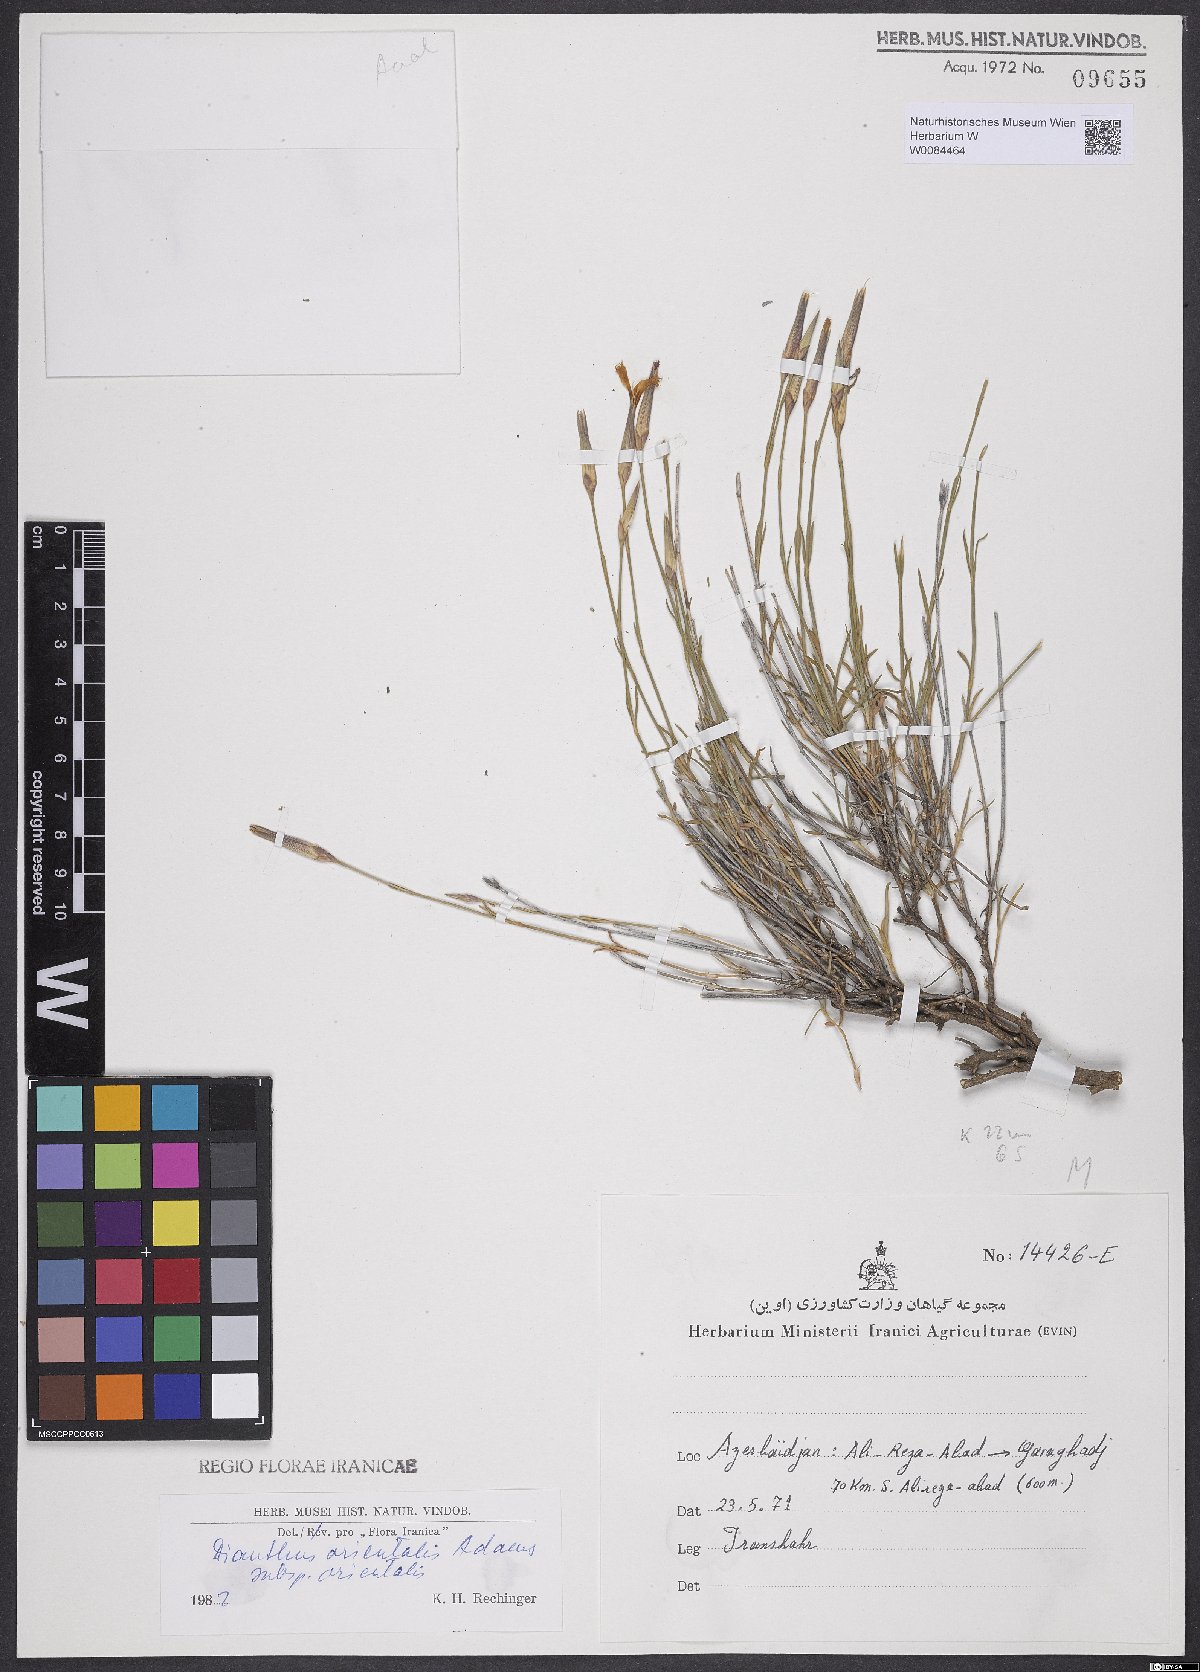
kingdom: Plantae
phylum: Tracheophyta
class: Magnoliopsida
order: Caryophyllales
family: Caryophyllaceae
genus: Dianthus
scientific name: Dianthus orientalis
